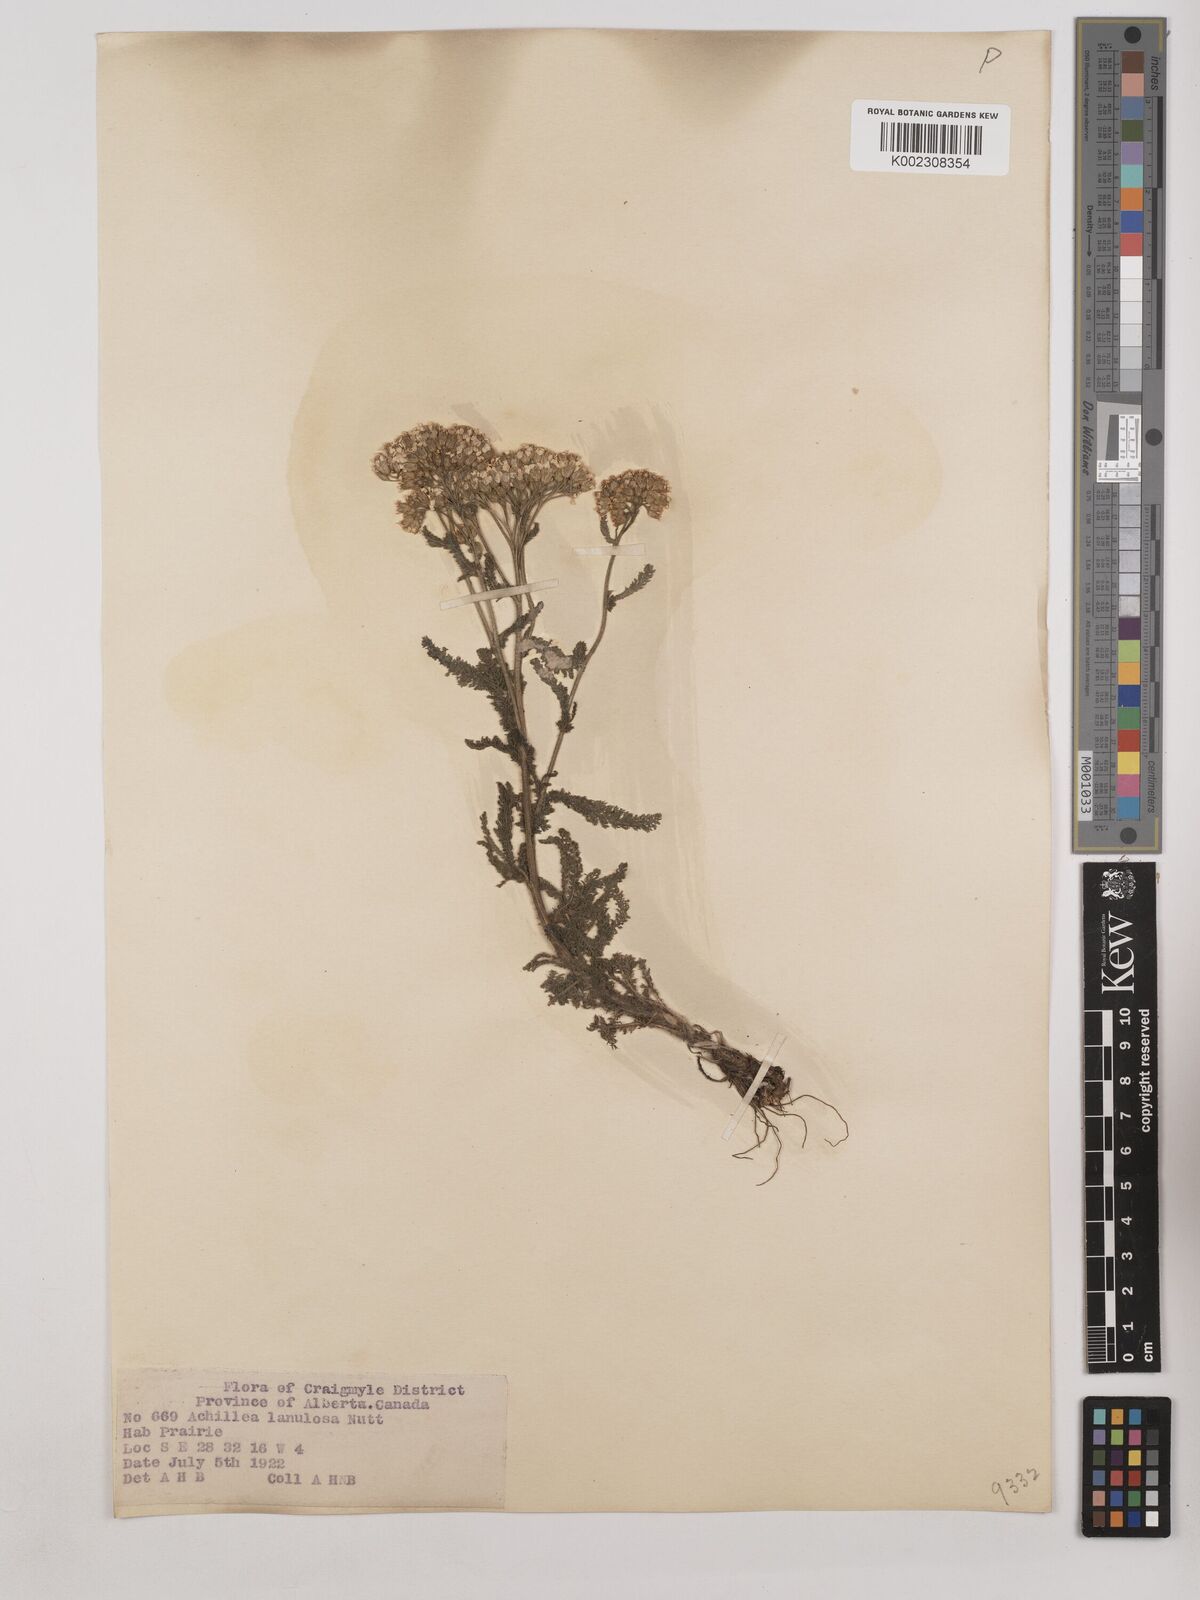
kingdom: Plantae
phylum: Tracheophyta
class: Magnoliopsida
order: Asterales
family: Asteraceae
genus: Achillea
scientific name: Achillea millefolium
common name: Yarrow
